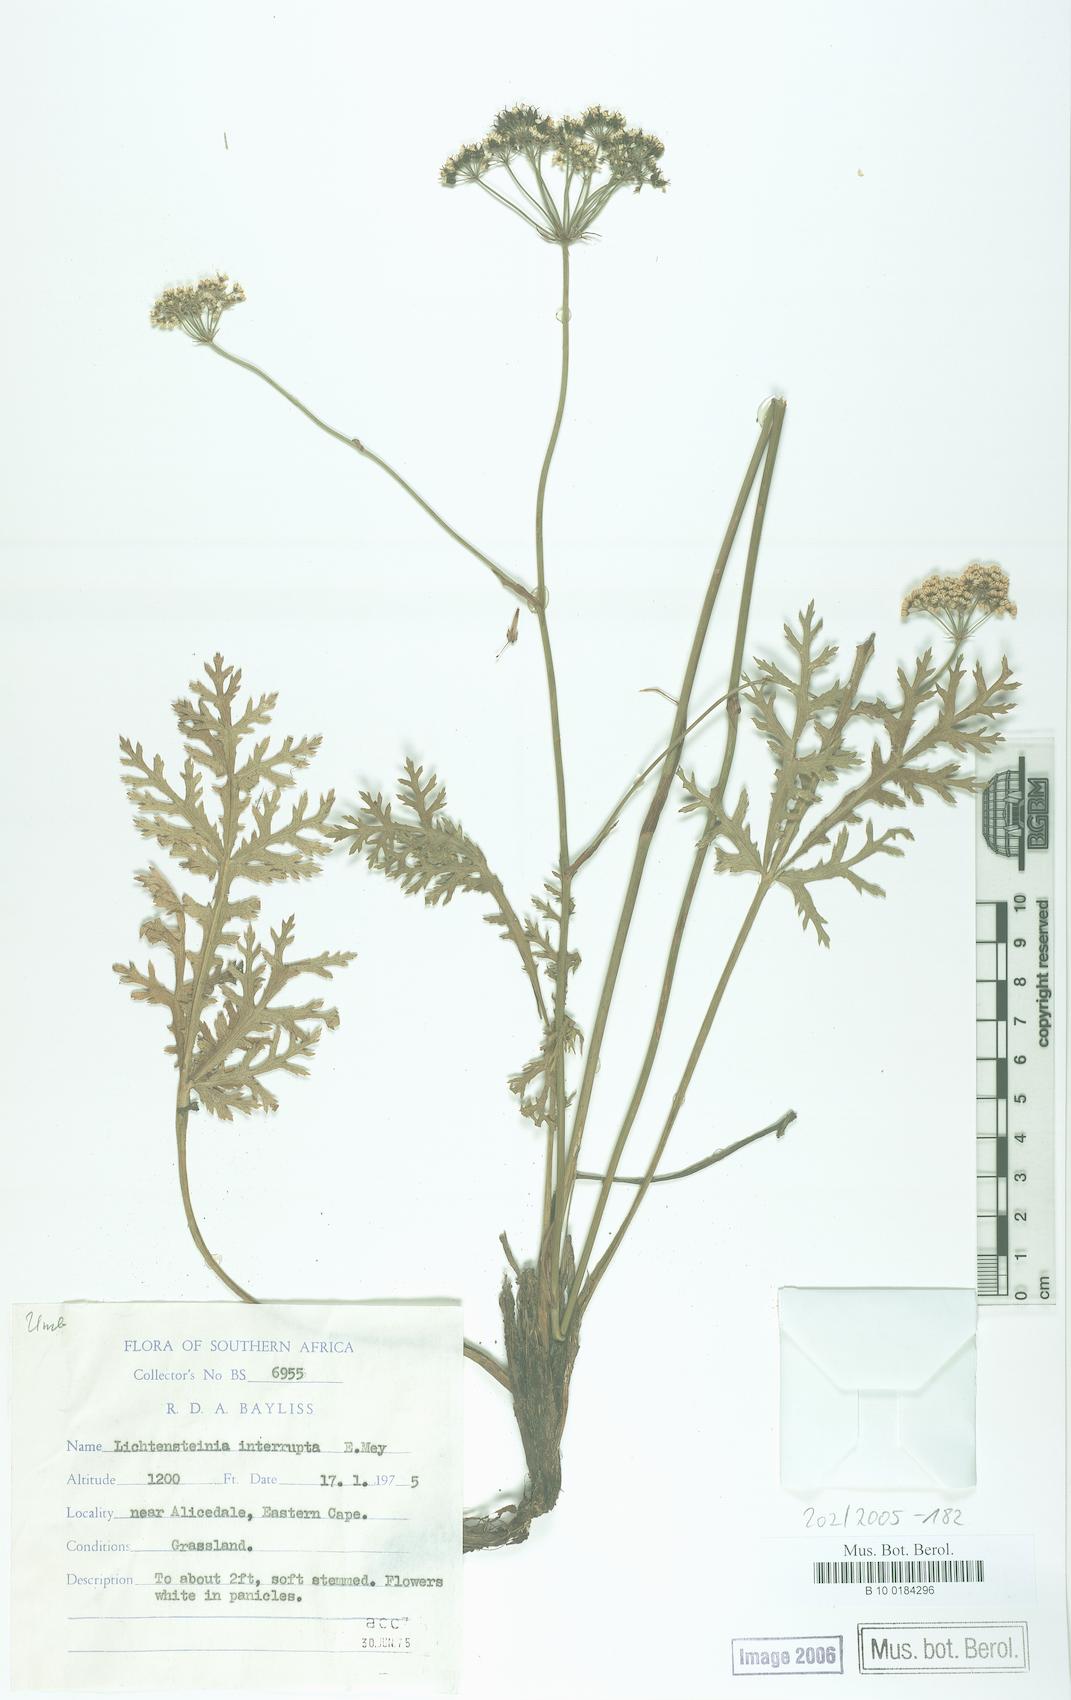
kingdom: Plantae
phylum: Tracheophyta
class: Magnoliopsida
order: Apiales
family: Apiaceae
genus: Lichtensteinia
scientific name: Lichtensteinia interrupta
